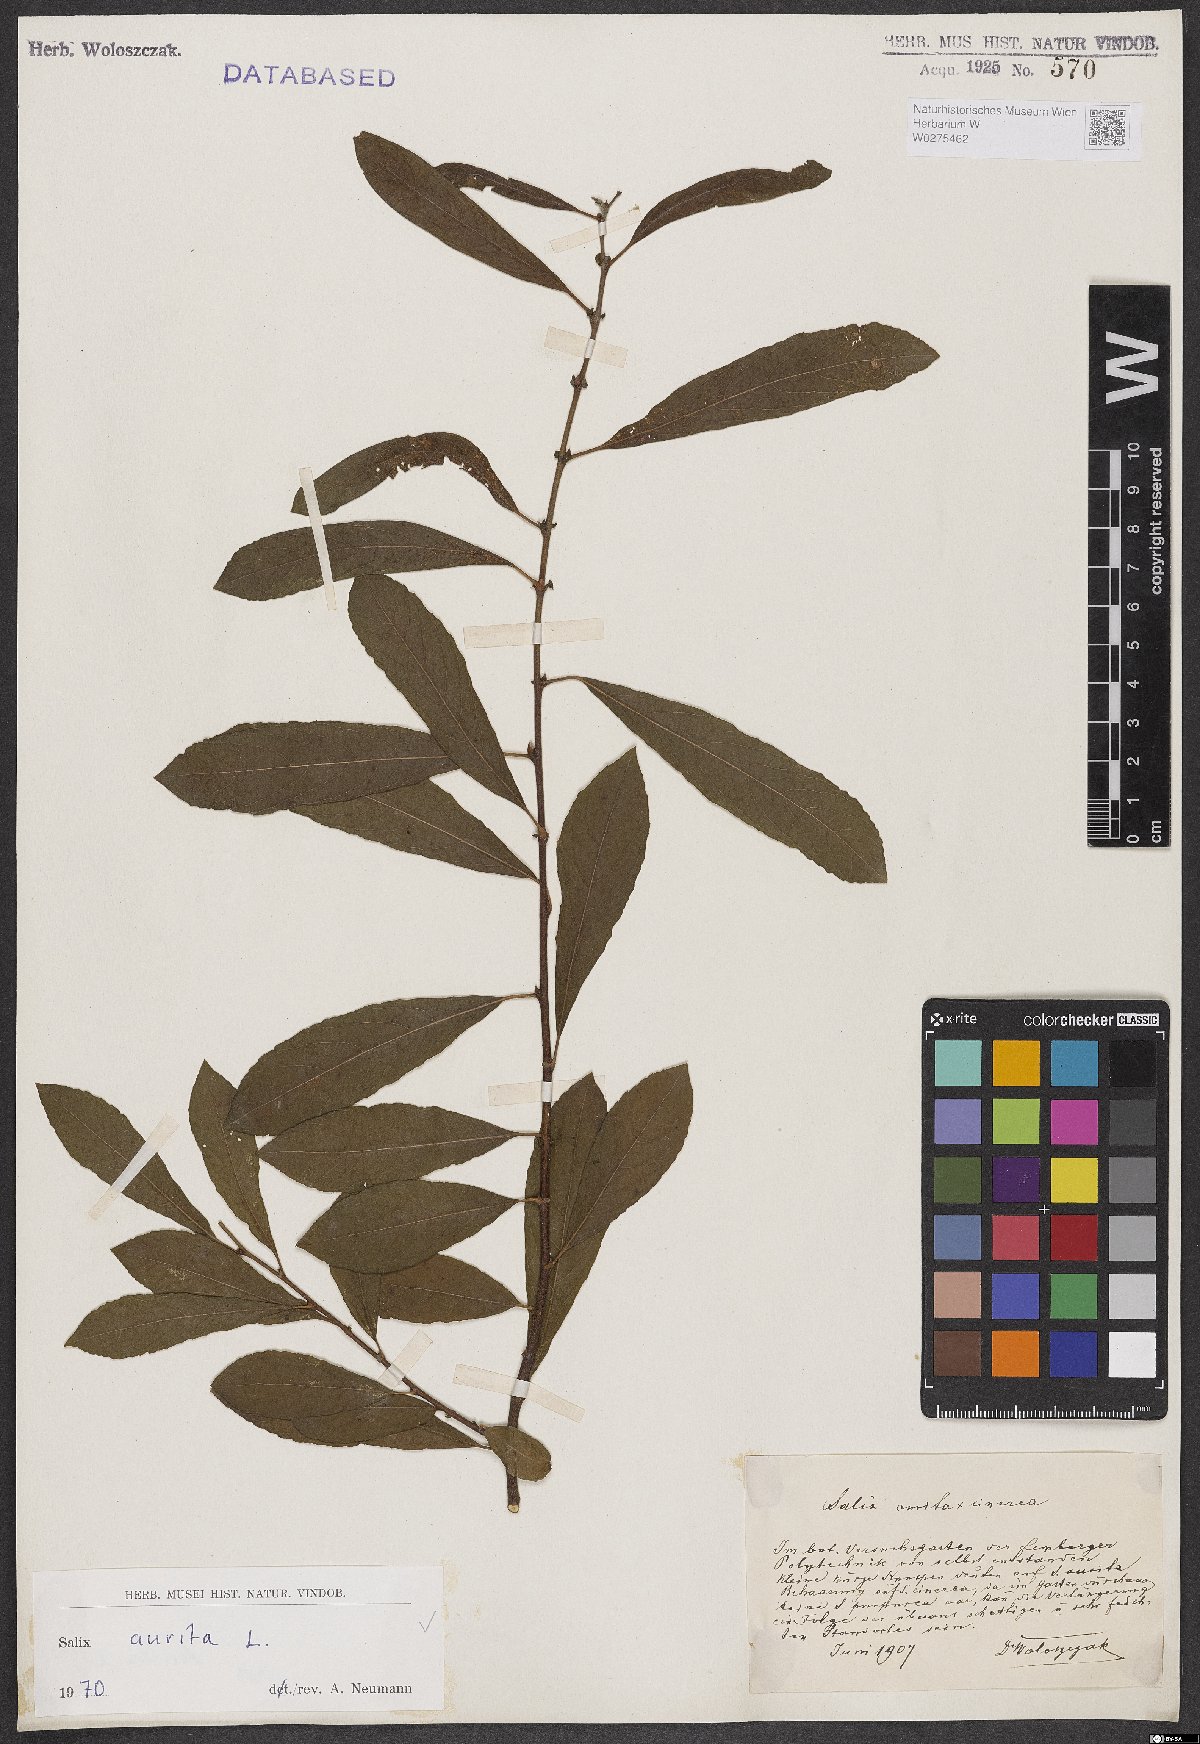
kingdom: Plantae
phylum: Tracheophyta
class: Magnoliopsida
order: Malpighiales
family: Salicaceae
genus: Salix
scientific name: Salix aurita
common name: Eared willow
